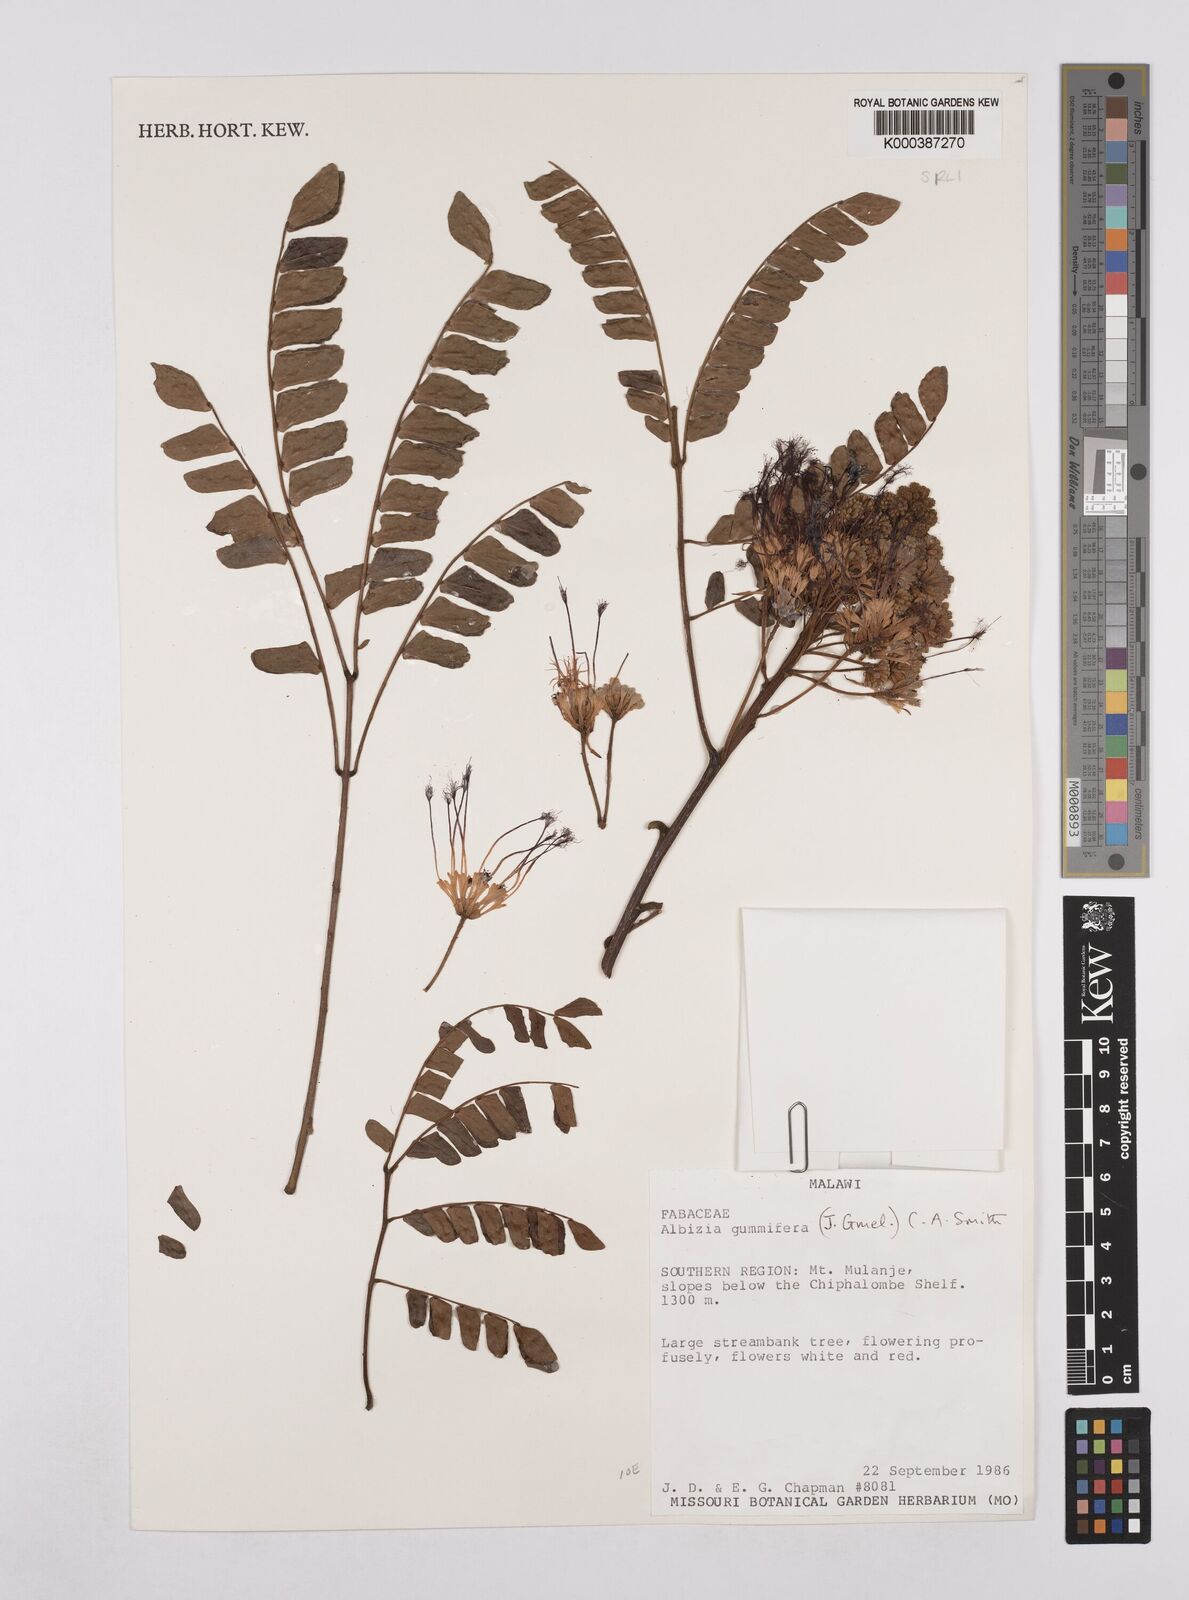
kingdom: Plantae
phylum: Tracheophyta
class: Magnoliopsida
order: Fabales
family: Fabaceae
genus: Albizia
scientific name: Albizia adianthifolia
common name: West african albizia
